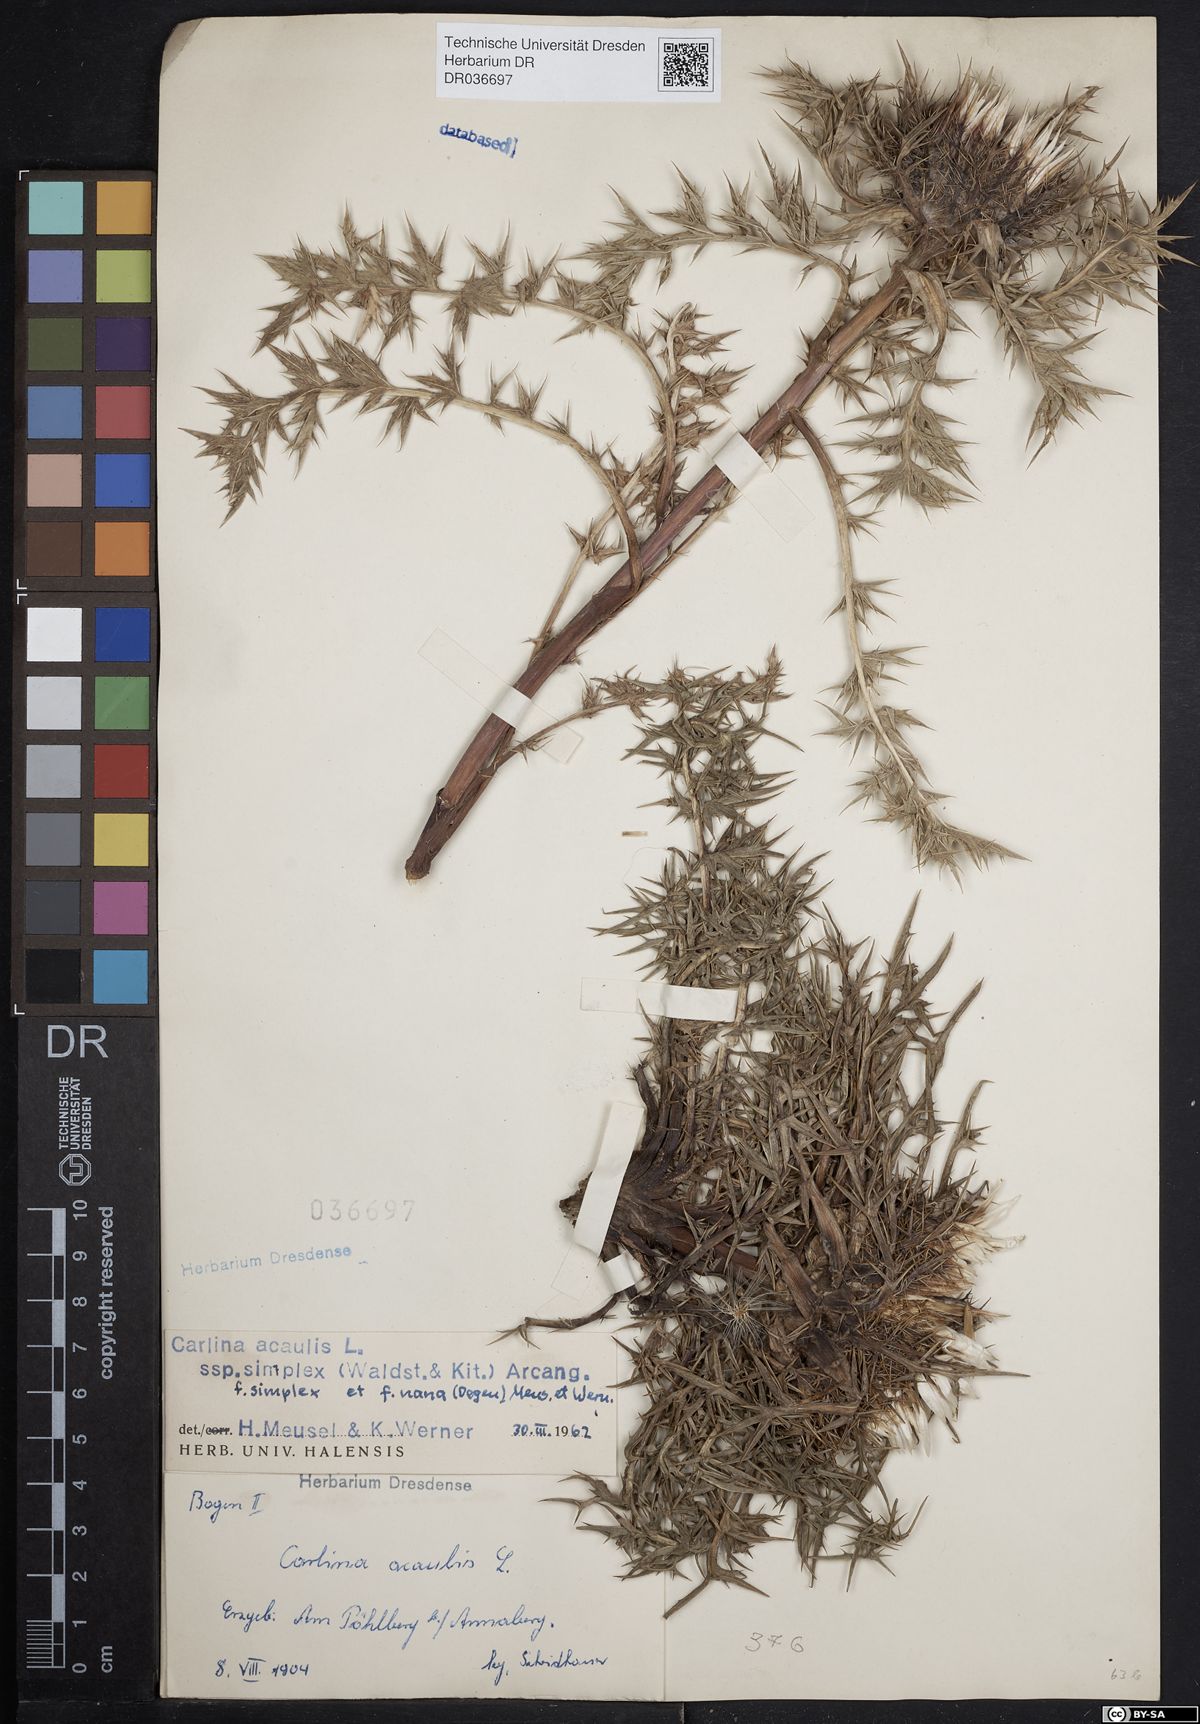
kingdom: Plantae
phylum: Tracheophyta
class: Magnoliopsida
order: Asterales
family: Asteraceae
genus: Carlina
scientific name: Carlina acaulis
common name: Stemless carline thistle
